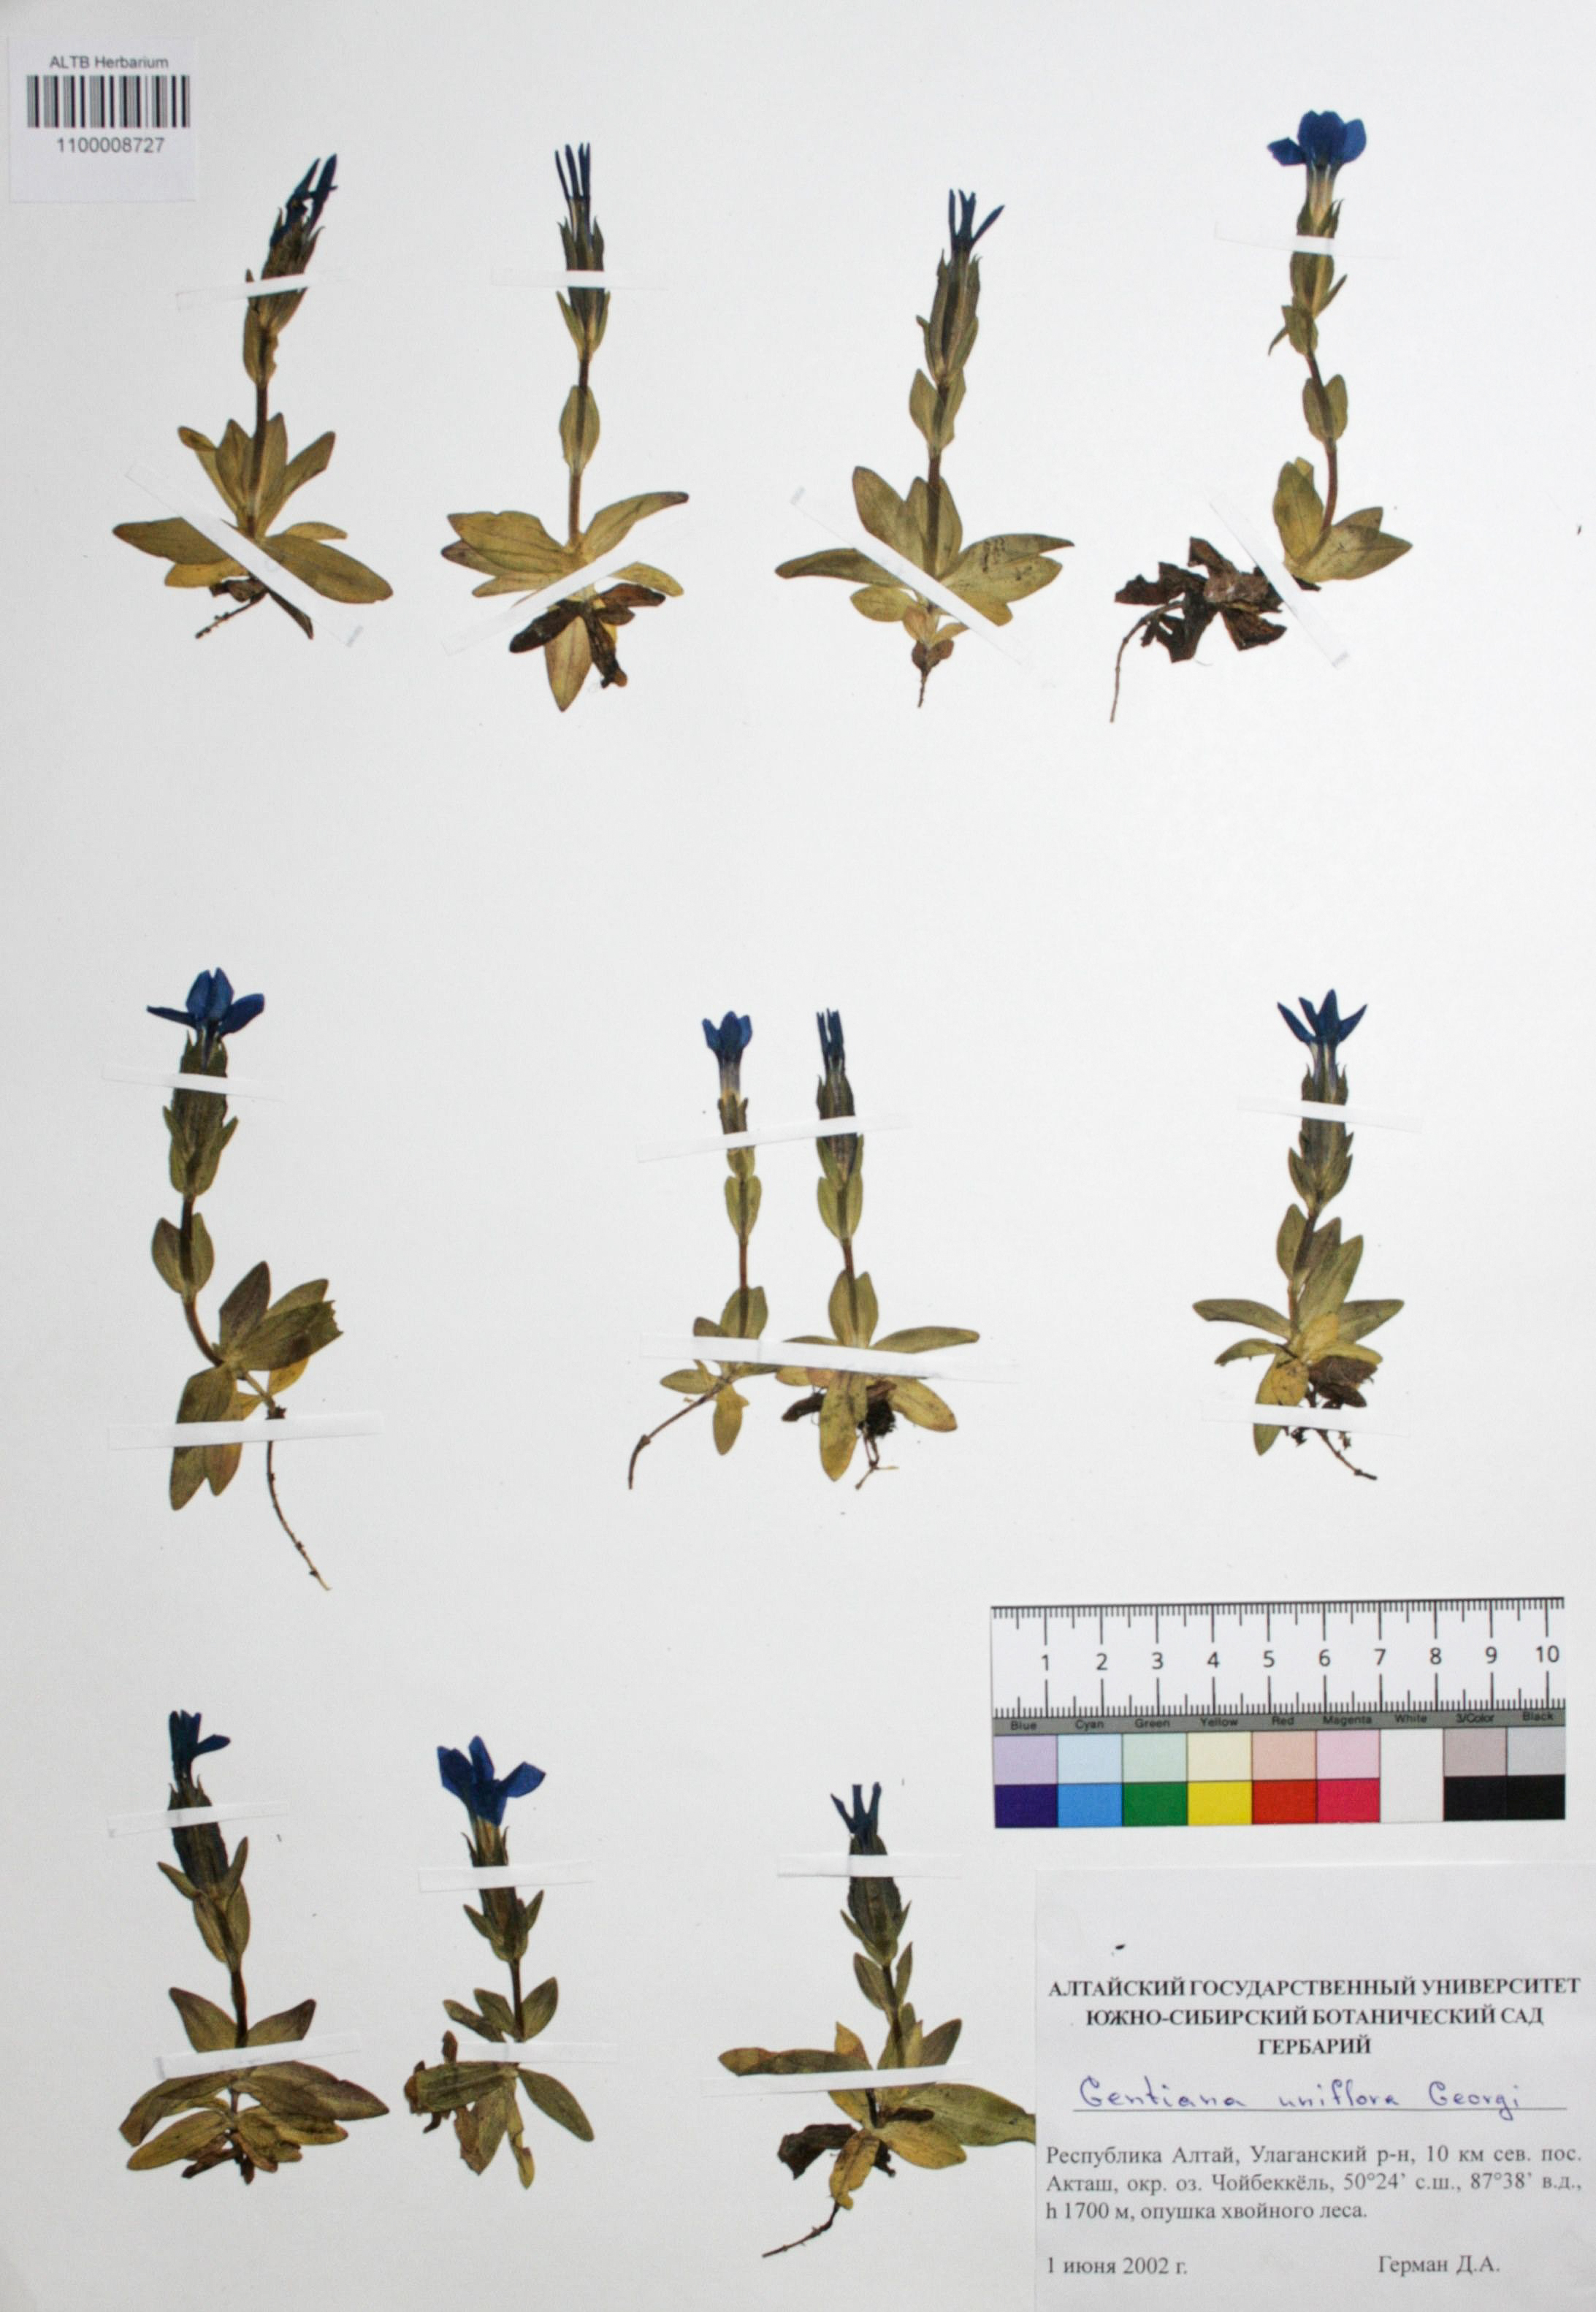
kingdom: Plantae
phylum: Tracheophyta
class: Magnoliopsida
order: Gentianales
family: Gentianaceae
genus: Gentiana
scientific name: Gentiana uniflora
